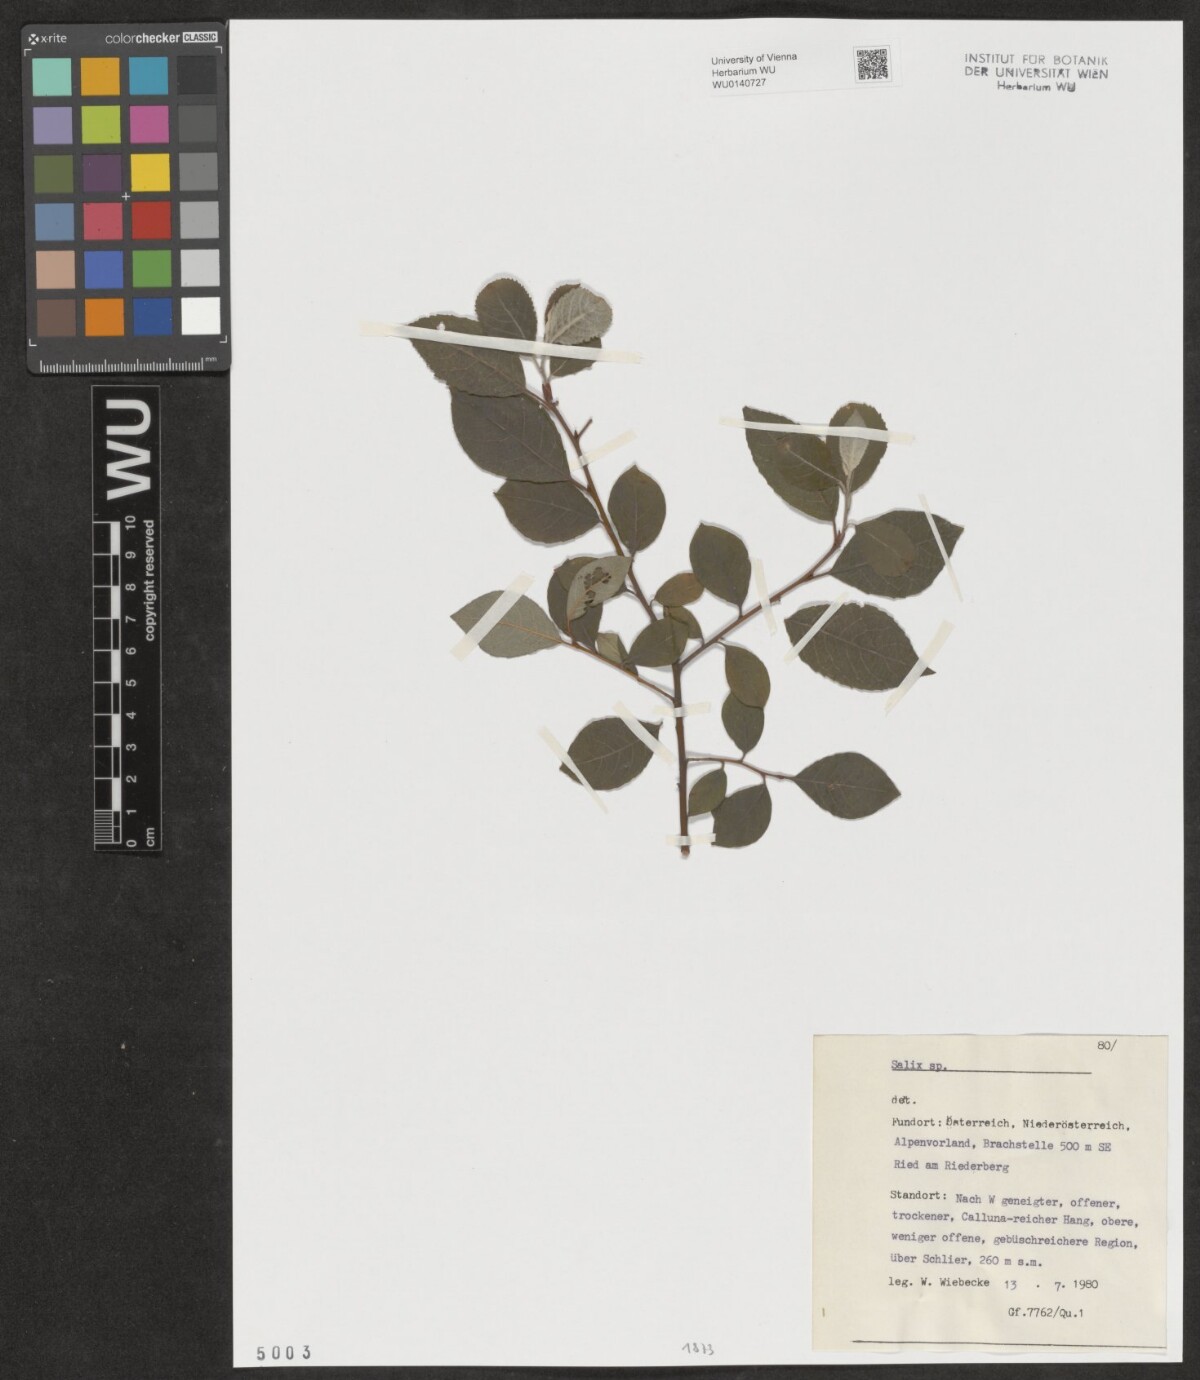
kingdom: Plantae
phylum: Tracheophyta
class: Magnoliopsida
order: Malpighiales
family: Salicaceae
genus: Salix
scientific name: Salix
